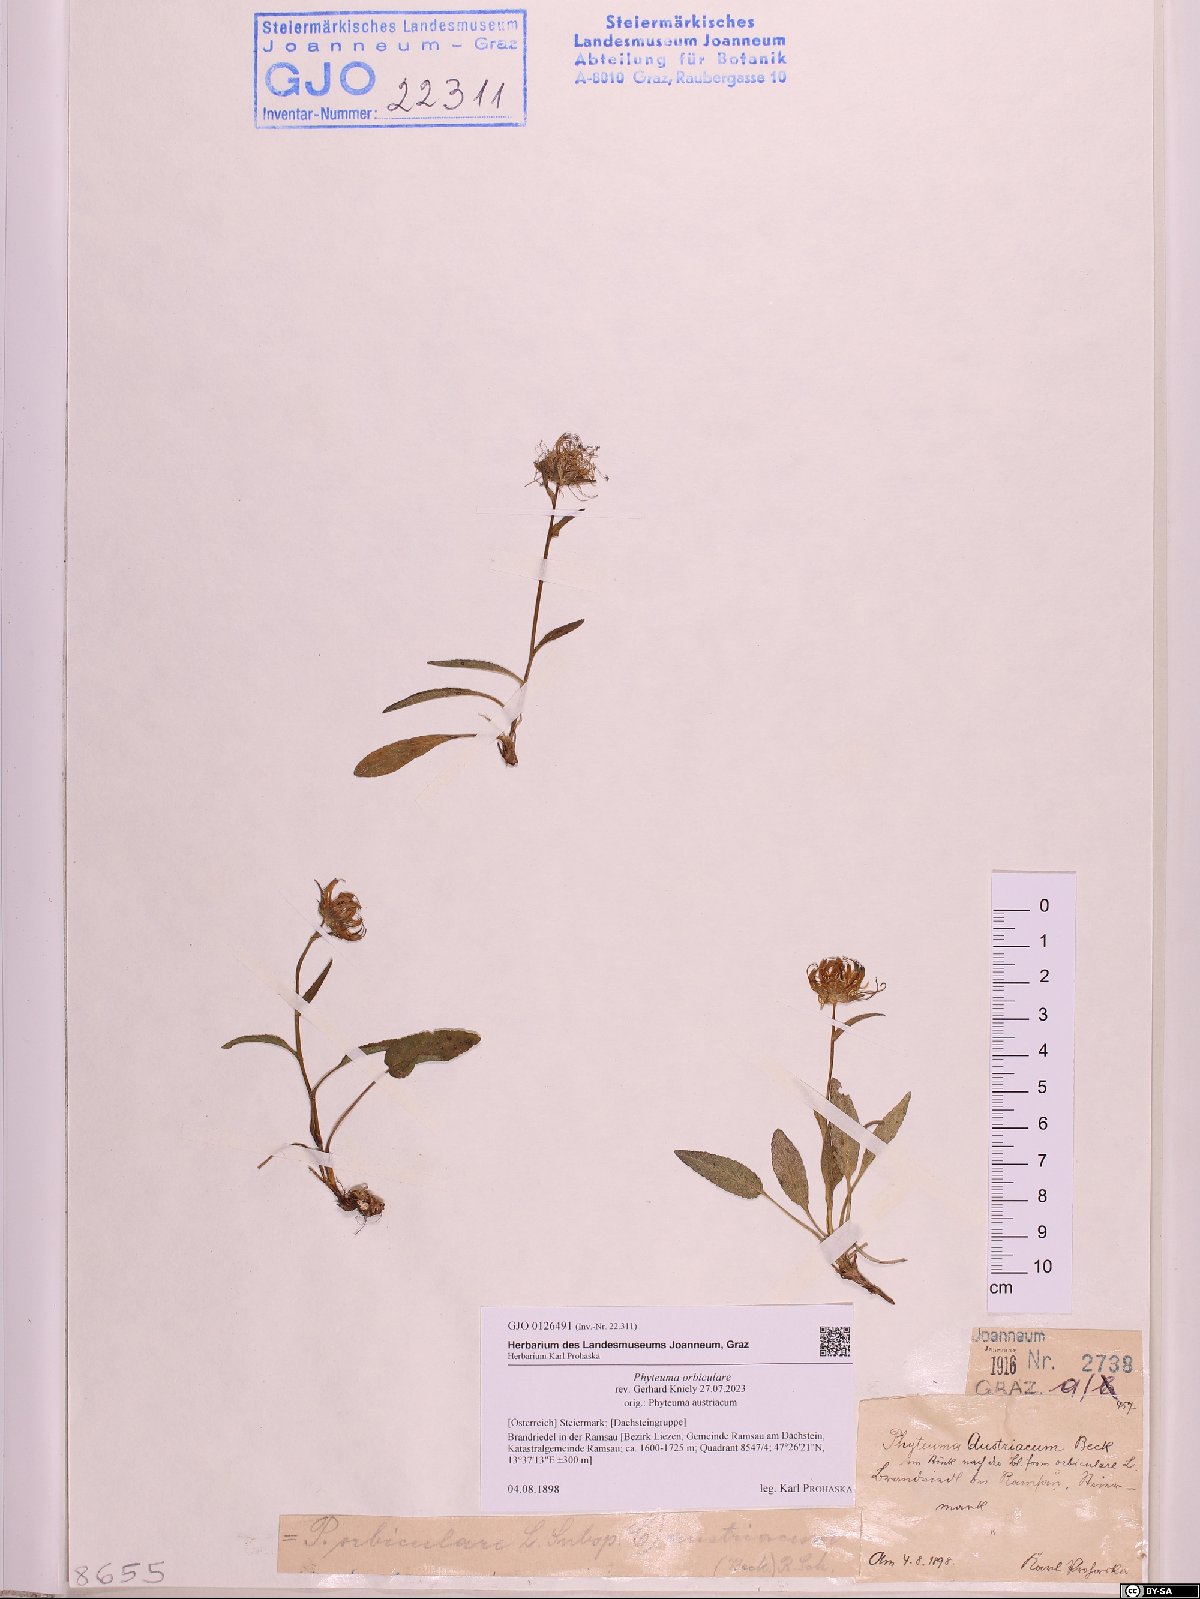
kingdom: Plantae
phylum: Tracheophyta
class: Magnoliopsida
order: Asterales
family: Campanulaceae
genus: Phyteuma
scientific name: Phyteuma orbiculare
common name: Round-headed rampion
